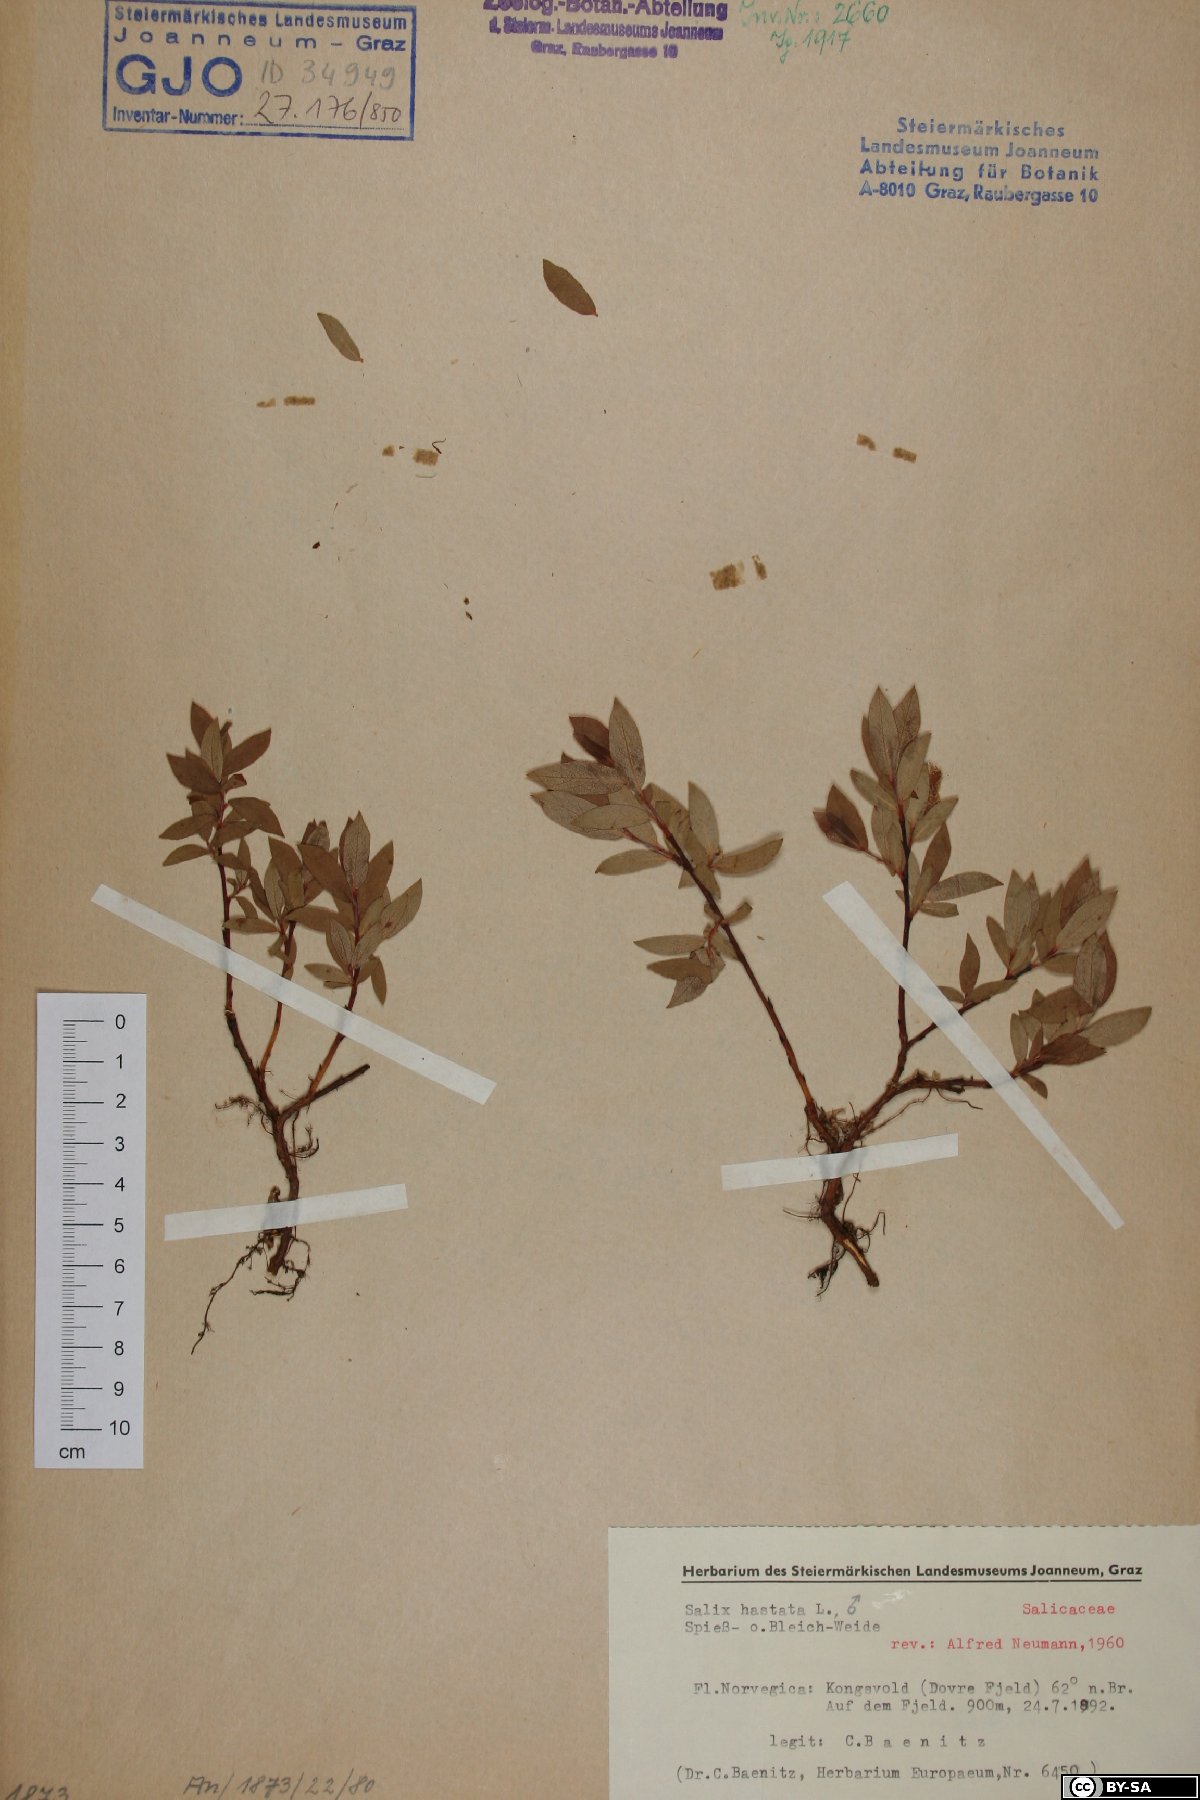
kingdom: Plantae
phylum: Tracheophyta
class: Magnoliopsida
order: Malpighiales
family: Salicaceae
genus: Salix
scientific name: Salix hastata
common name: Halberd willow
